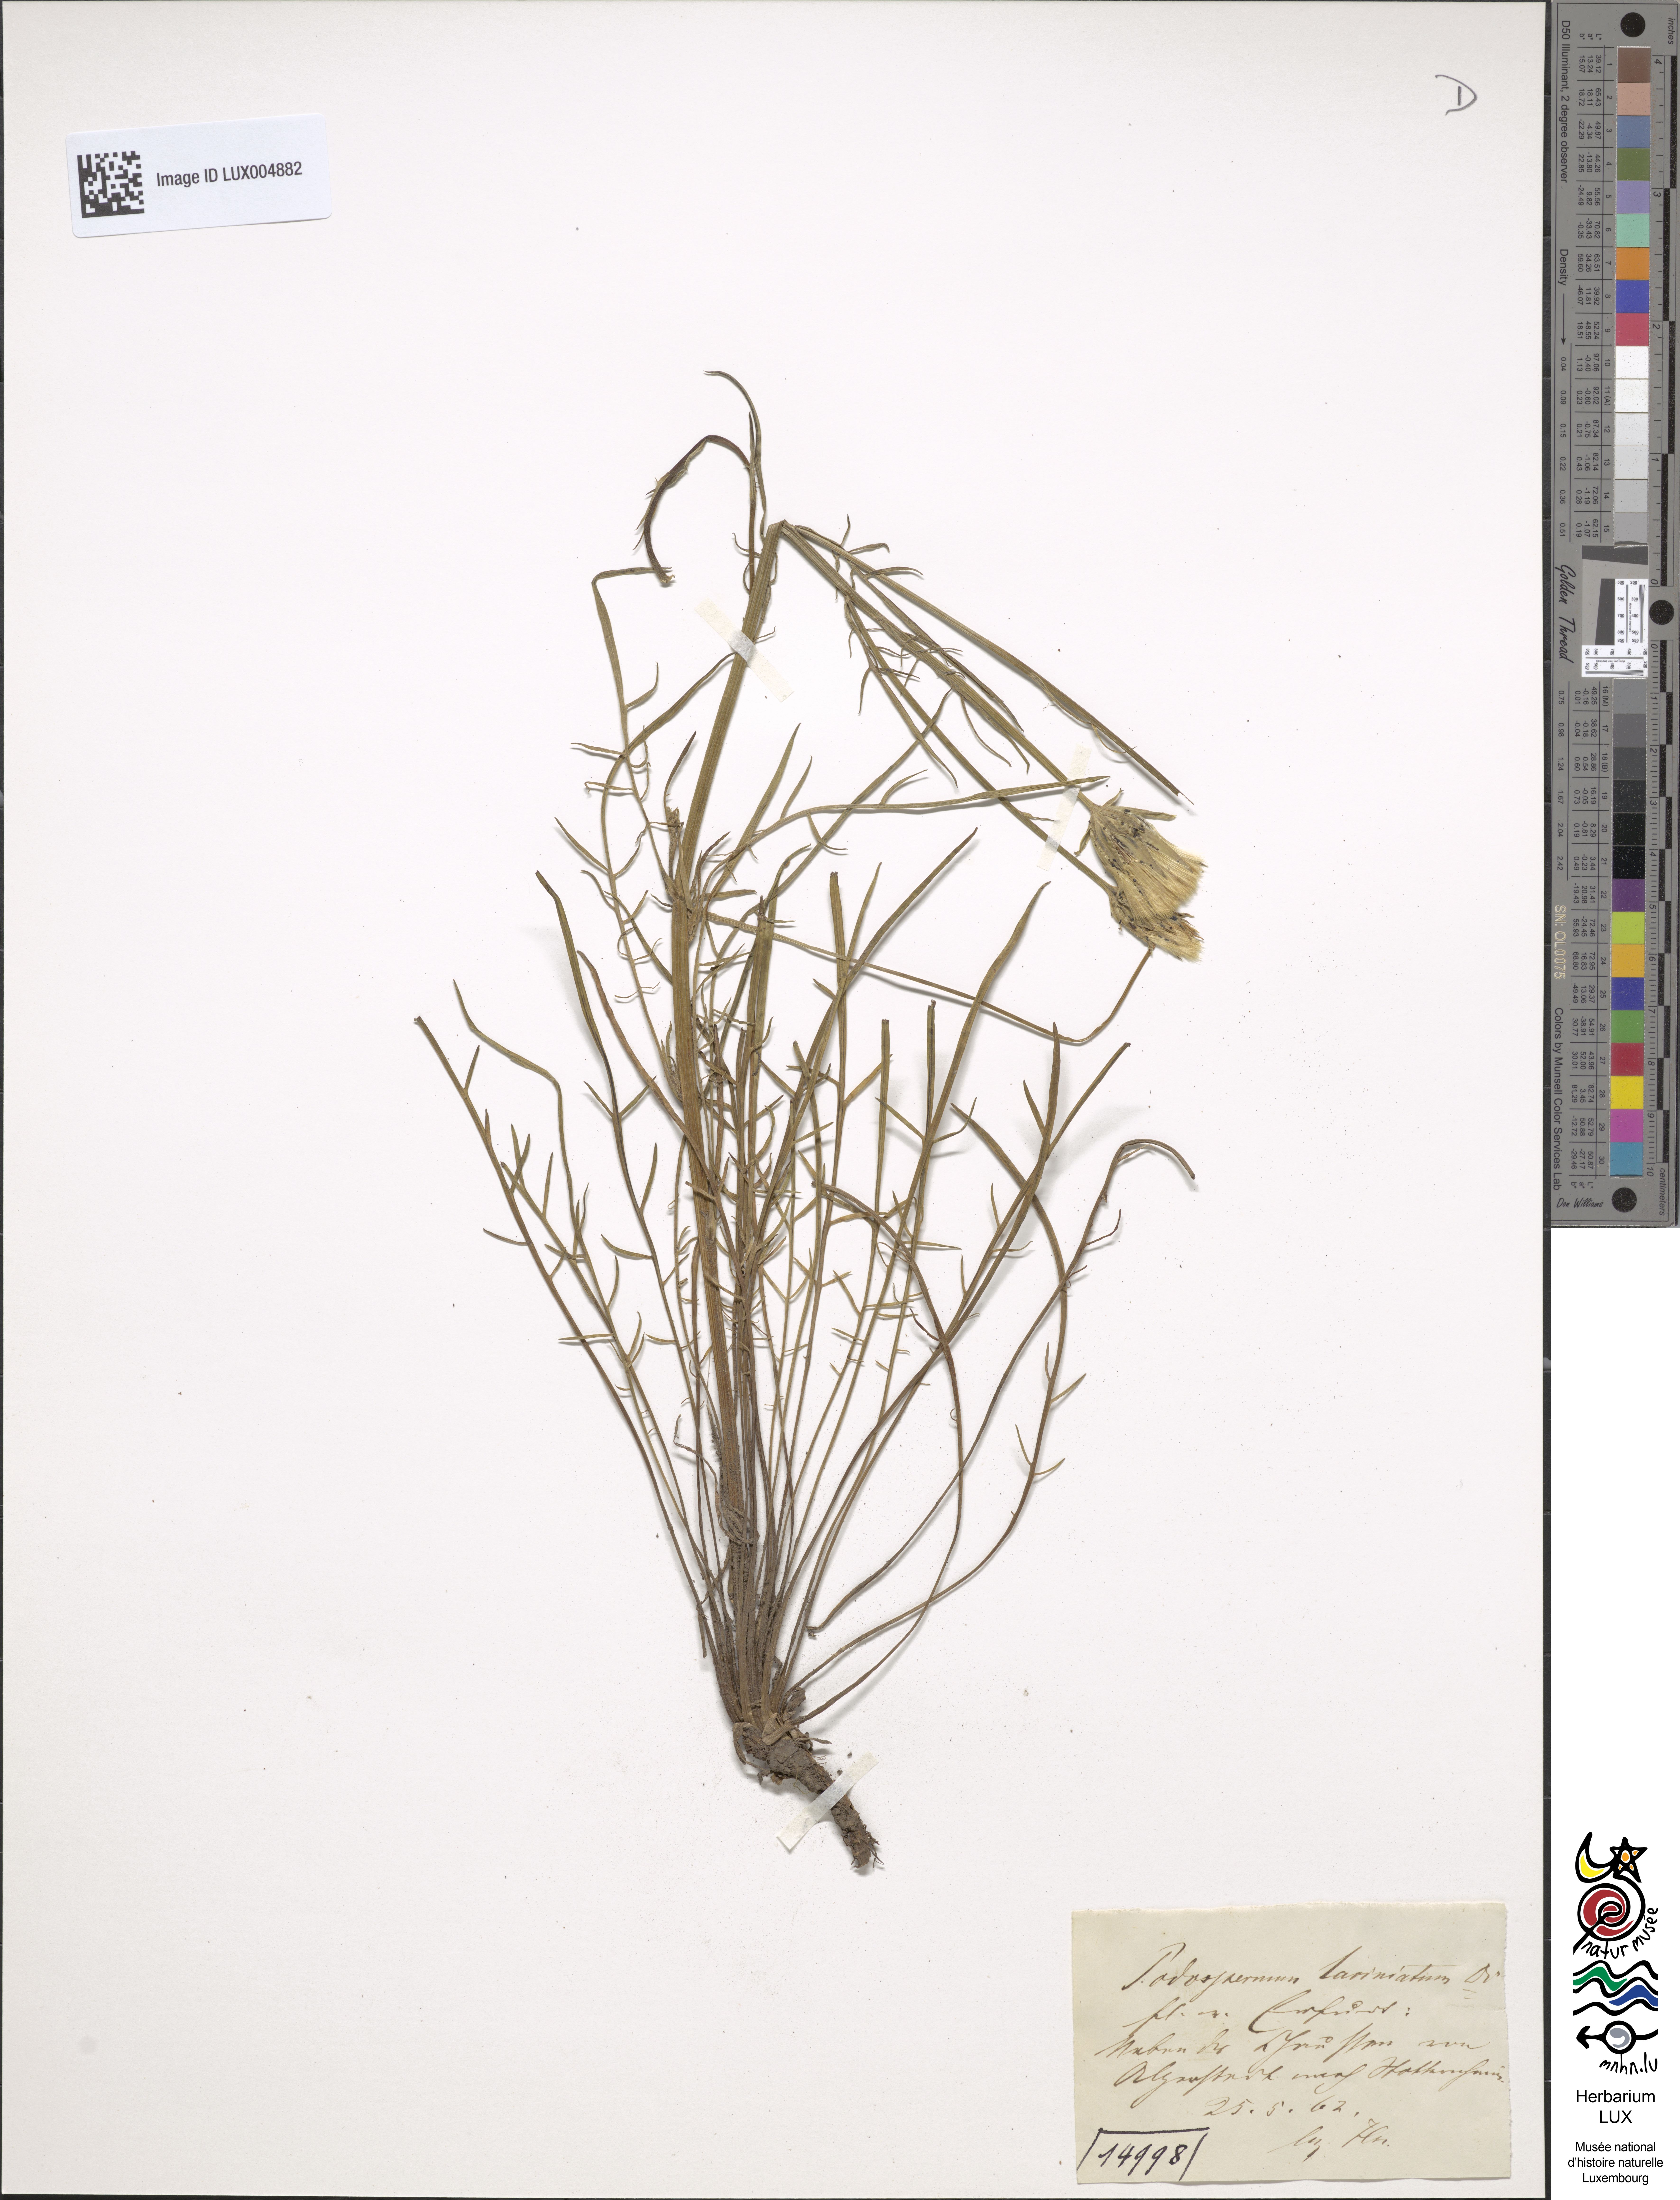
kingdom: Plantae
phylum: Tracheophyta
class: Magnoliopsida
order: Asterales
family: Asteraceae
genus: Scorzonera
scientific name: Scorzonera laciniata
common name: Cutleaf vipergrass
